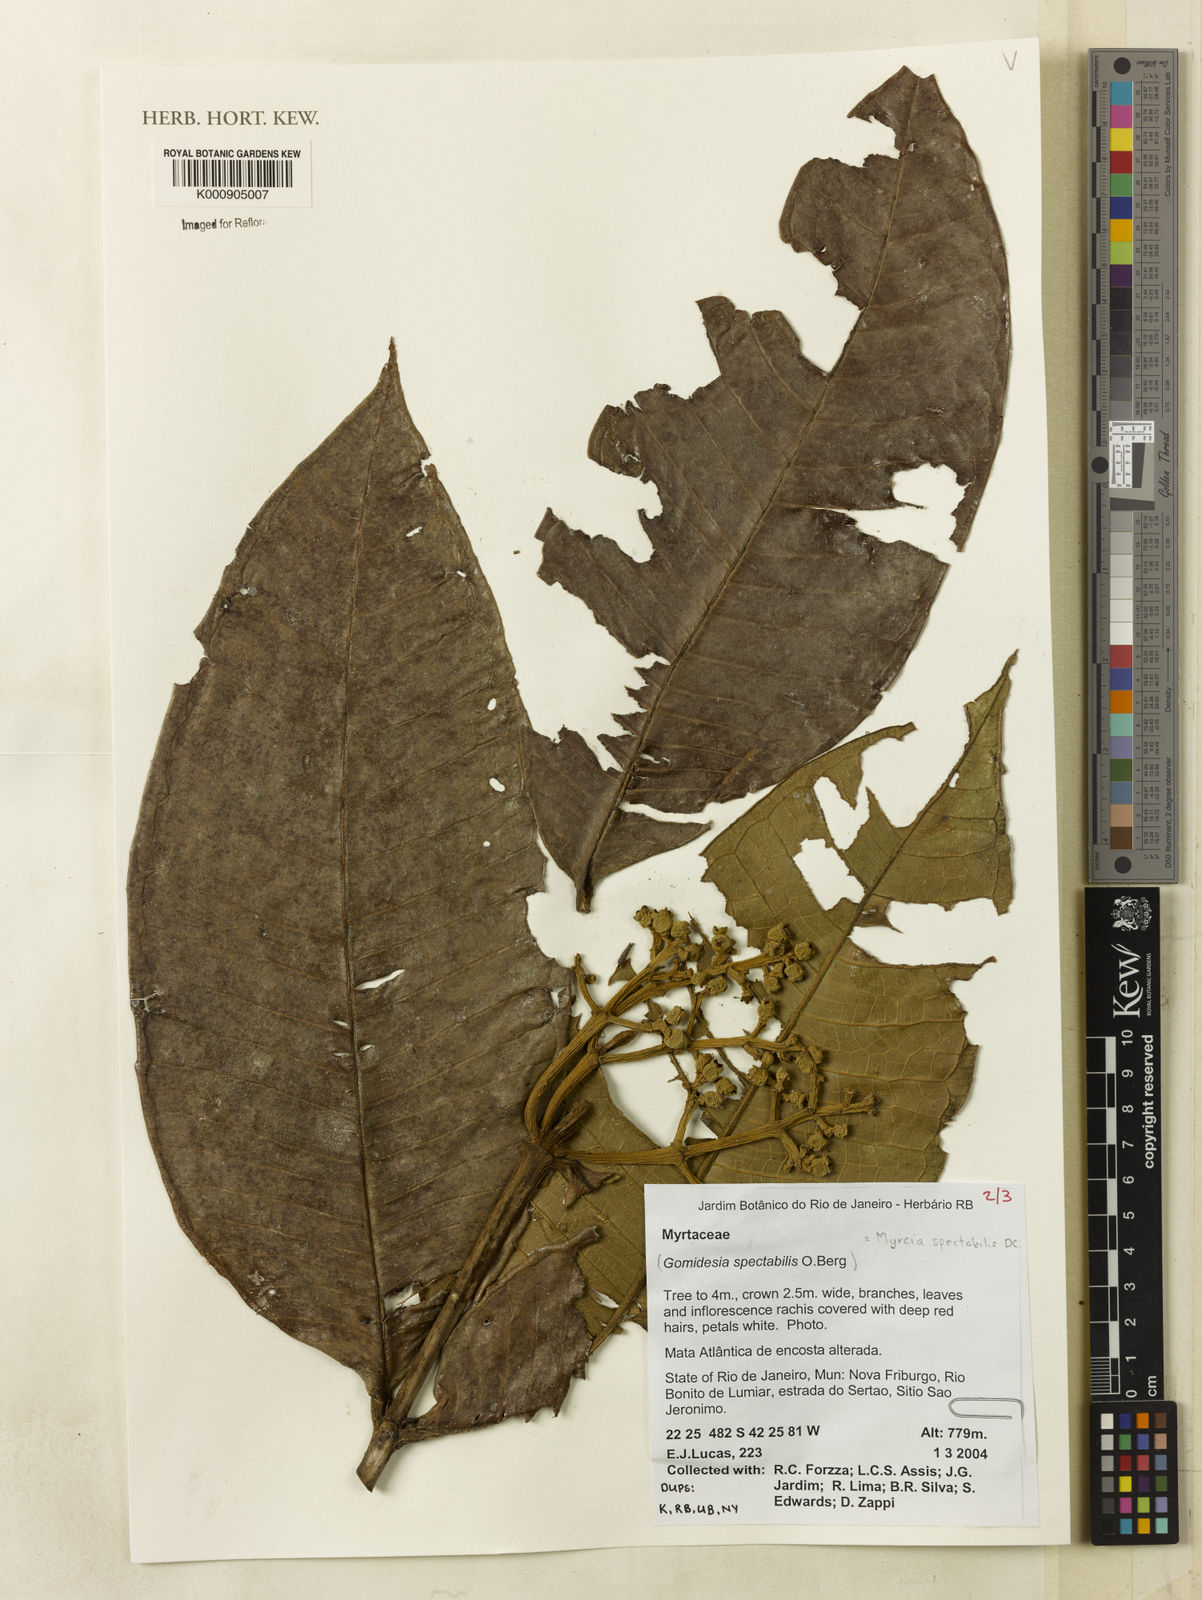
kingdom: Plantae
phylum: Tracheophyta
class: Magnoliopsida
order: Myrtales
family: Myrtaceae
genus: Myrcia
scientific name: Myrcia spectabilis
